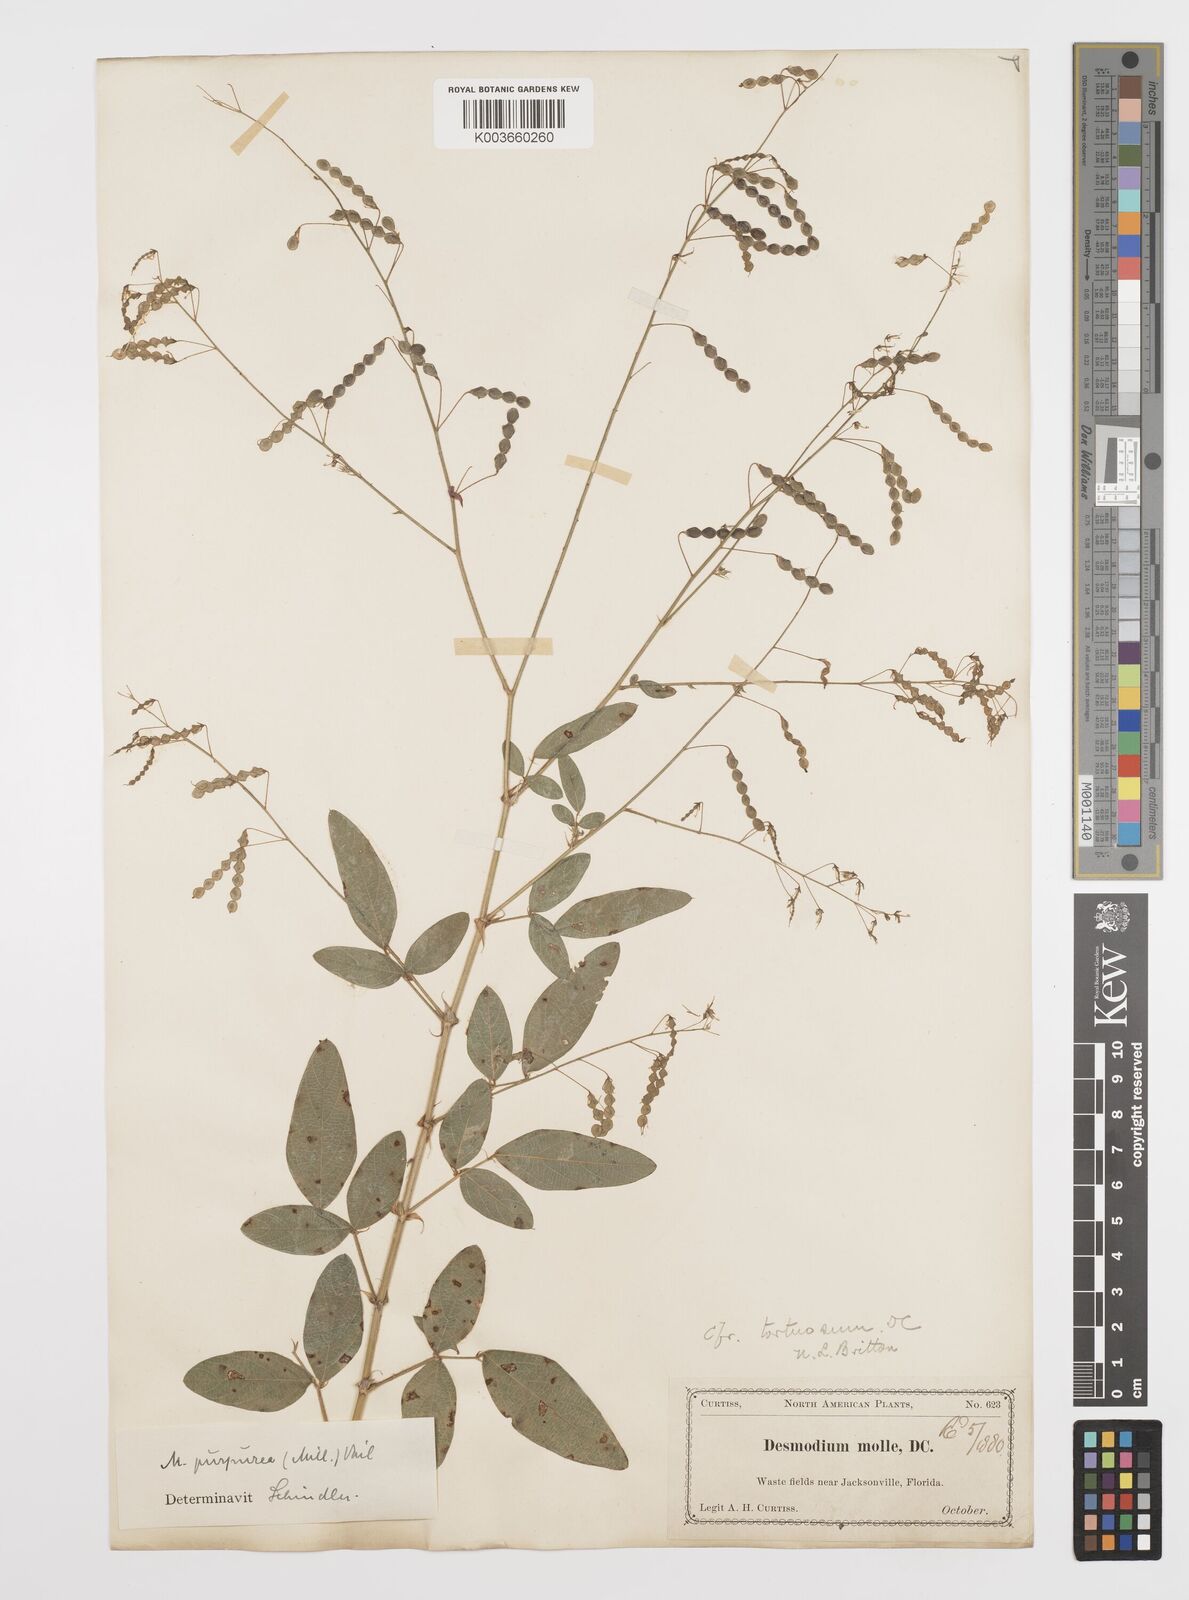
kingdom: Plantae
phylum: Tracheophyta
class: Magnoliopsida
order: Fabales
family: Fabaceae
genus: Desmodium
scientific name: Desmodium tortuosum
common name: Dixie ticktrefoil
